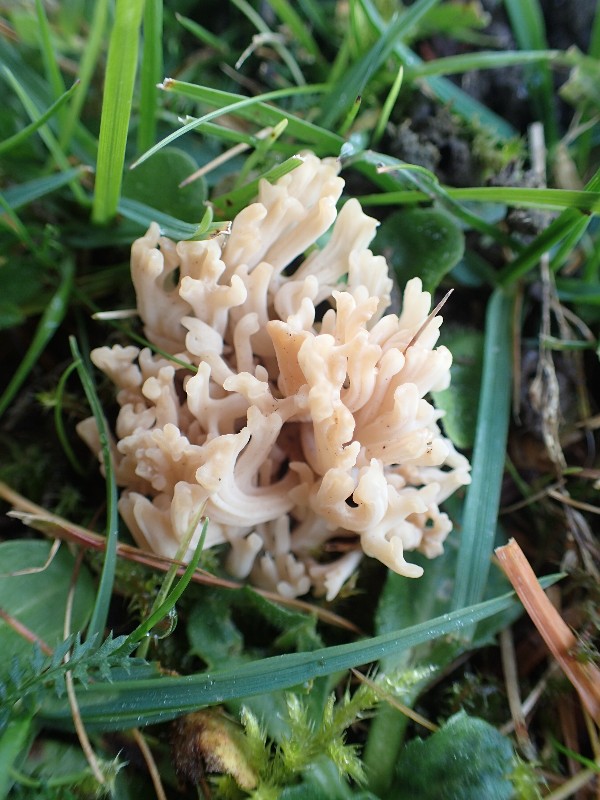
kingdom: Fungi
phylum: Basidiomycota
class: Agaricomycetes
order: Agaricales
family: Clavariaceae
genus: Ramariopsis
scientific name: Ramariopsis
